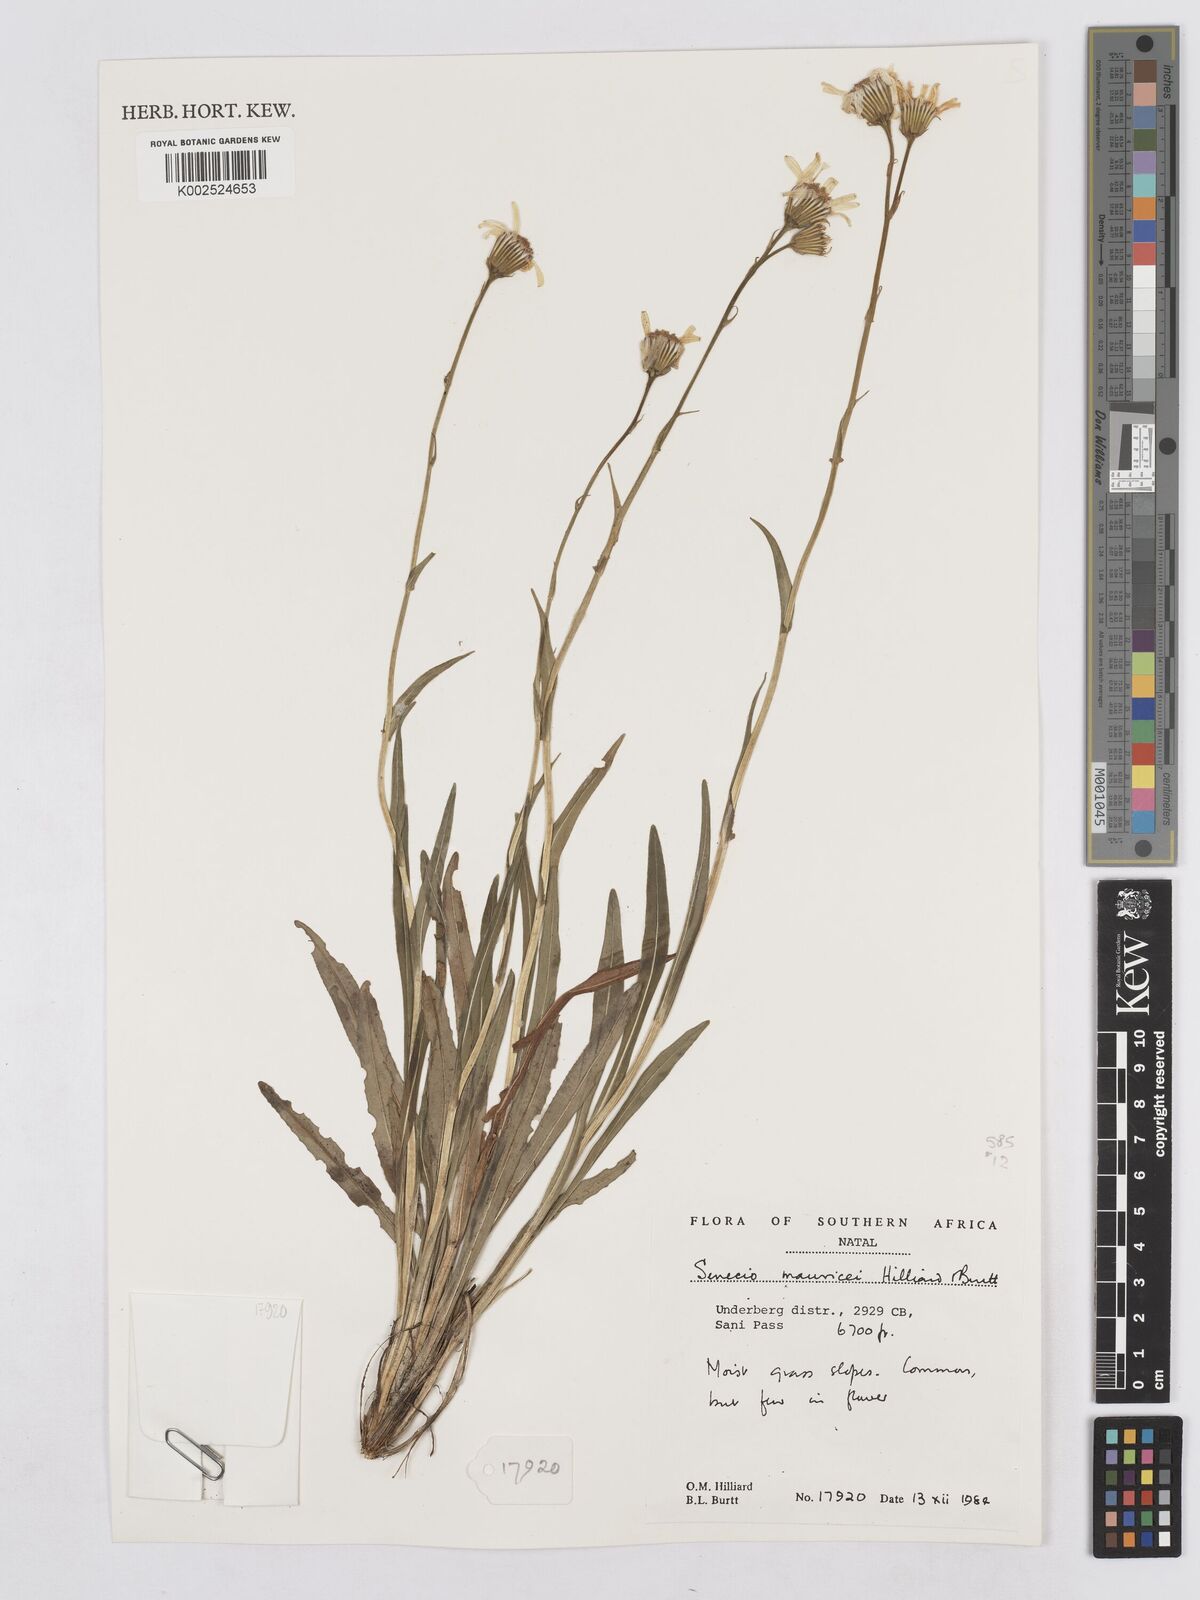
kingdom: Plantae
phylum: Tracheophyta
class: Magnoliopsida
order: Asterales
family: Asteraceae
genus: Senecio
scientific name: Senecio mauricei
